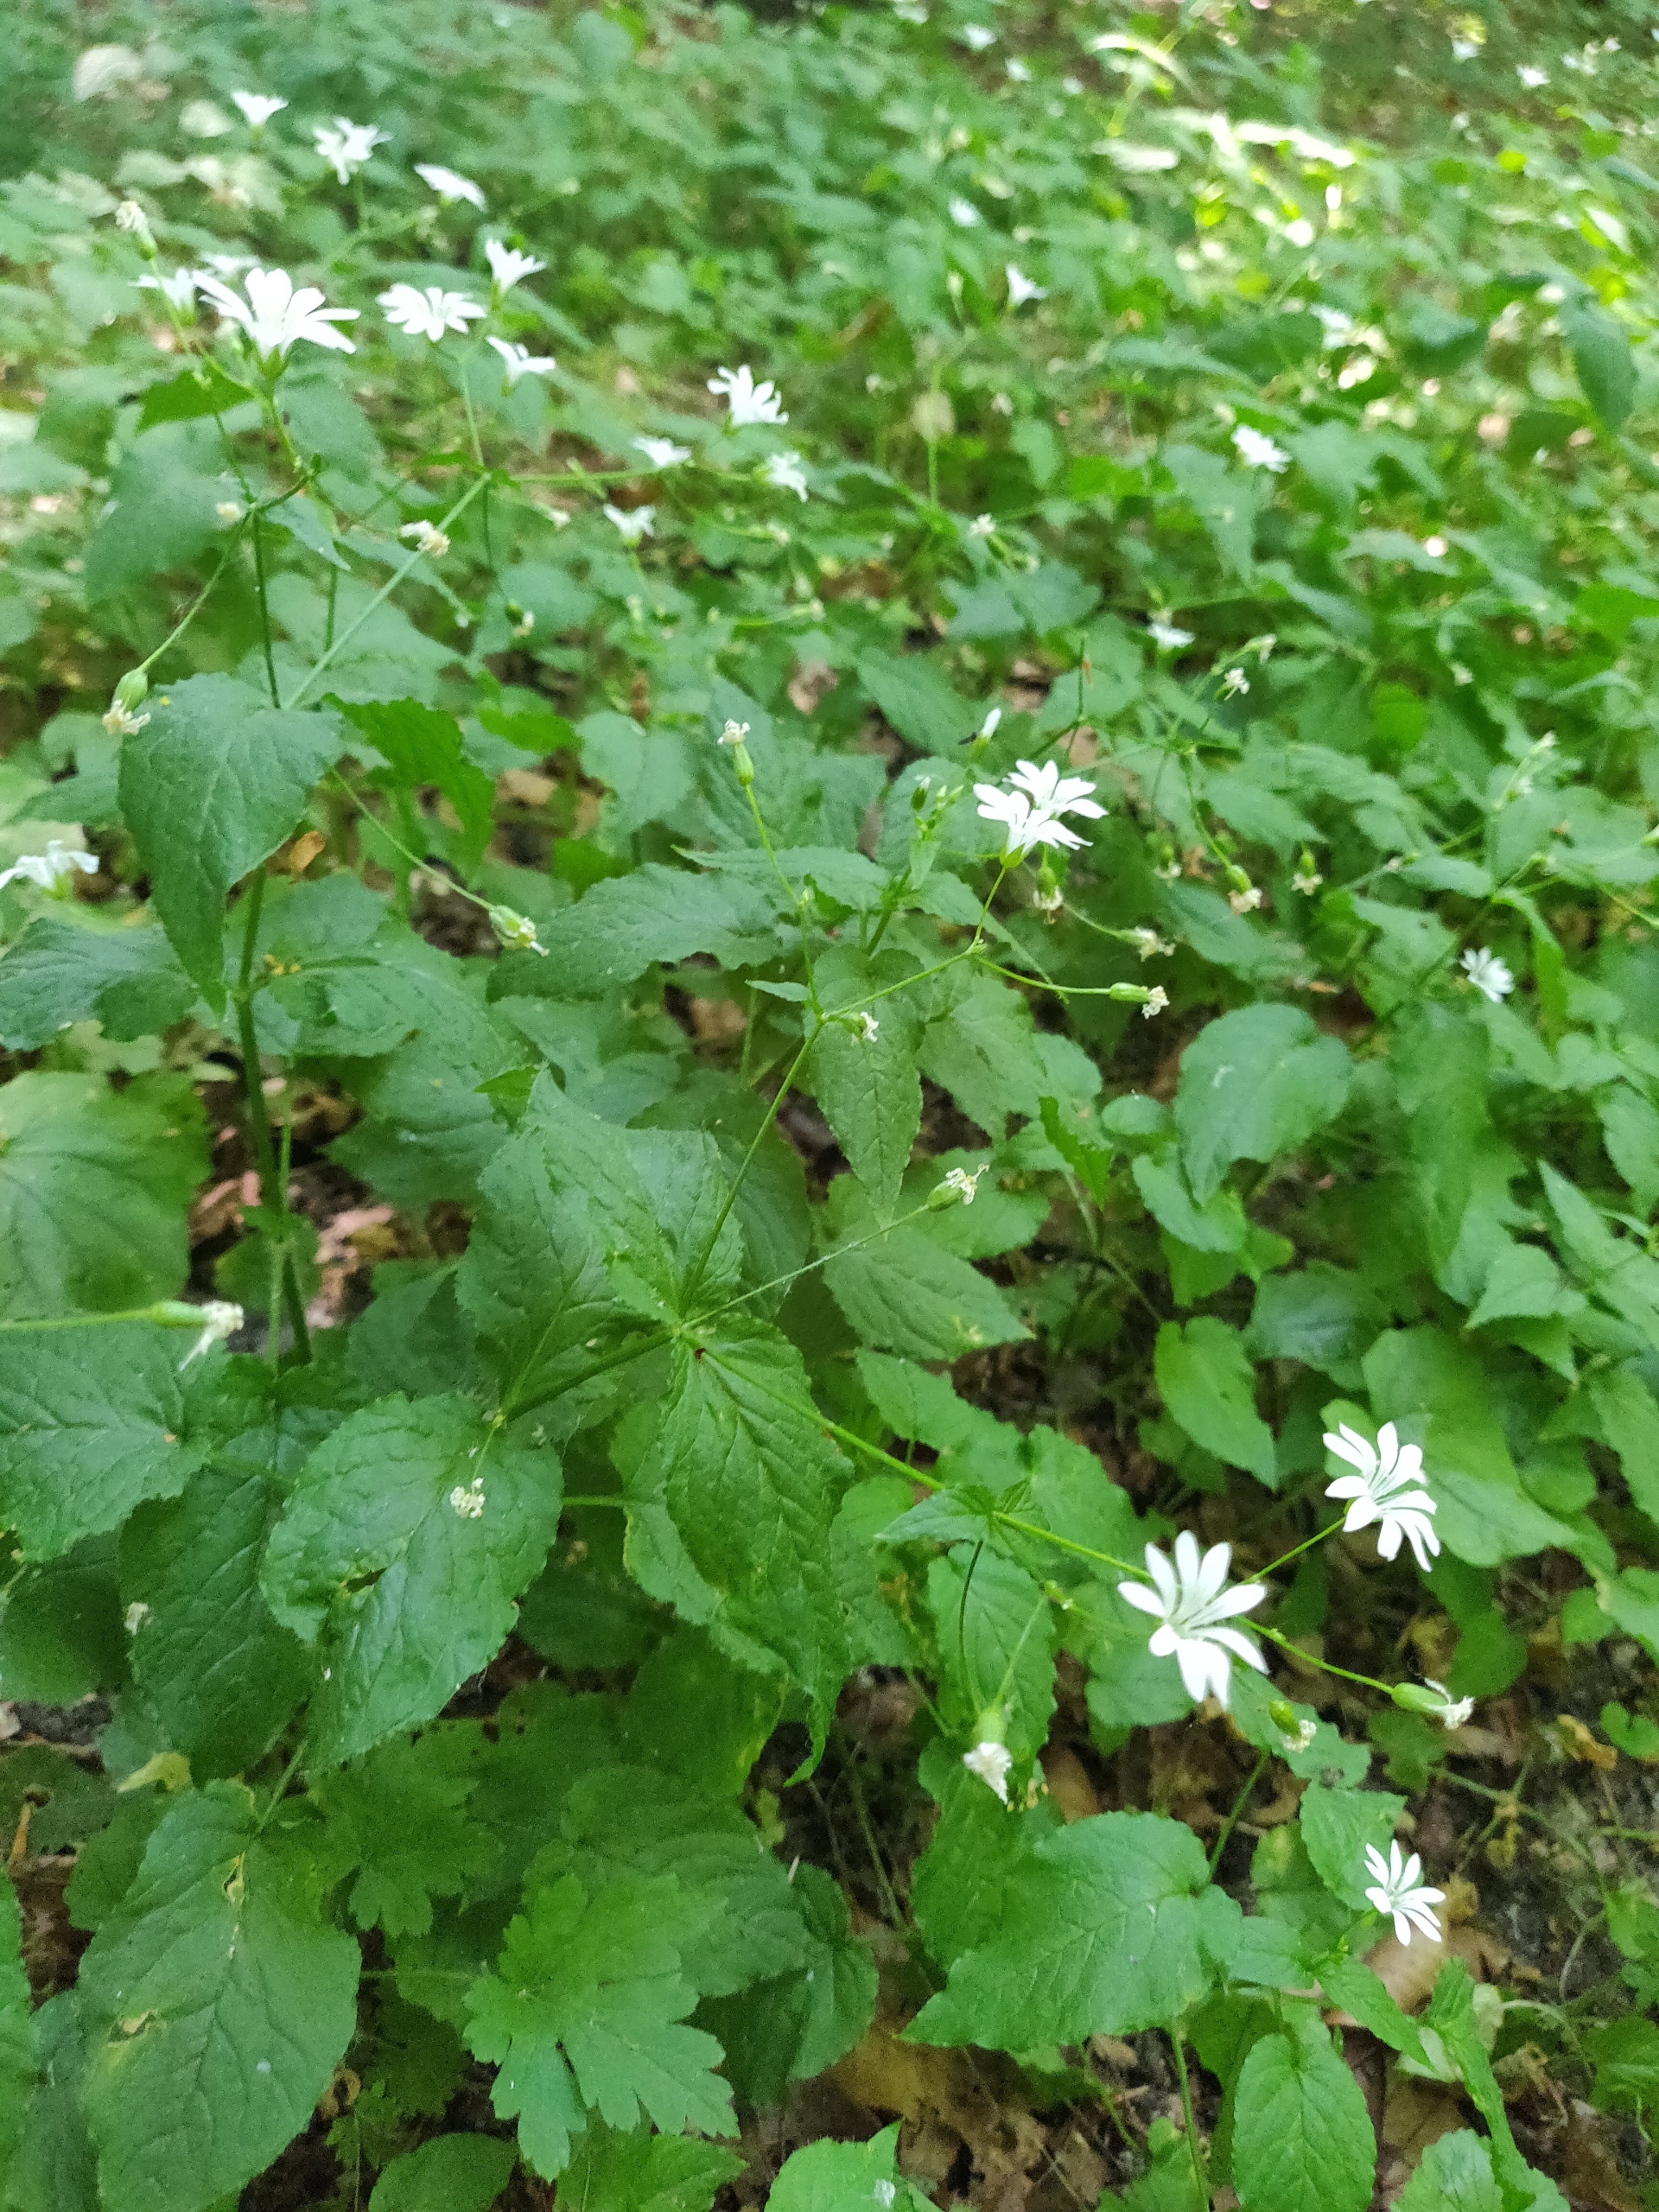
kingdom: Plantae
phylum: Tracheophyta
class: Magnoliopsida
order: Caryophyllales
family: Caryophyllaceae
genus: Stellaria
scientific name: Stellaria glochidisperma
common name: Sydlig lund-fladstjerne
